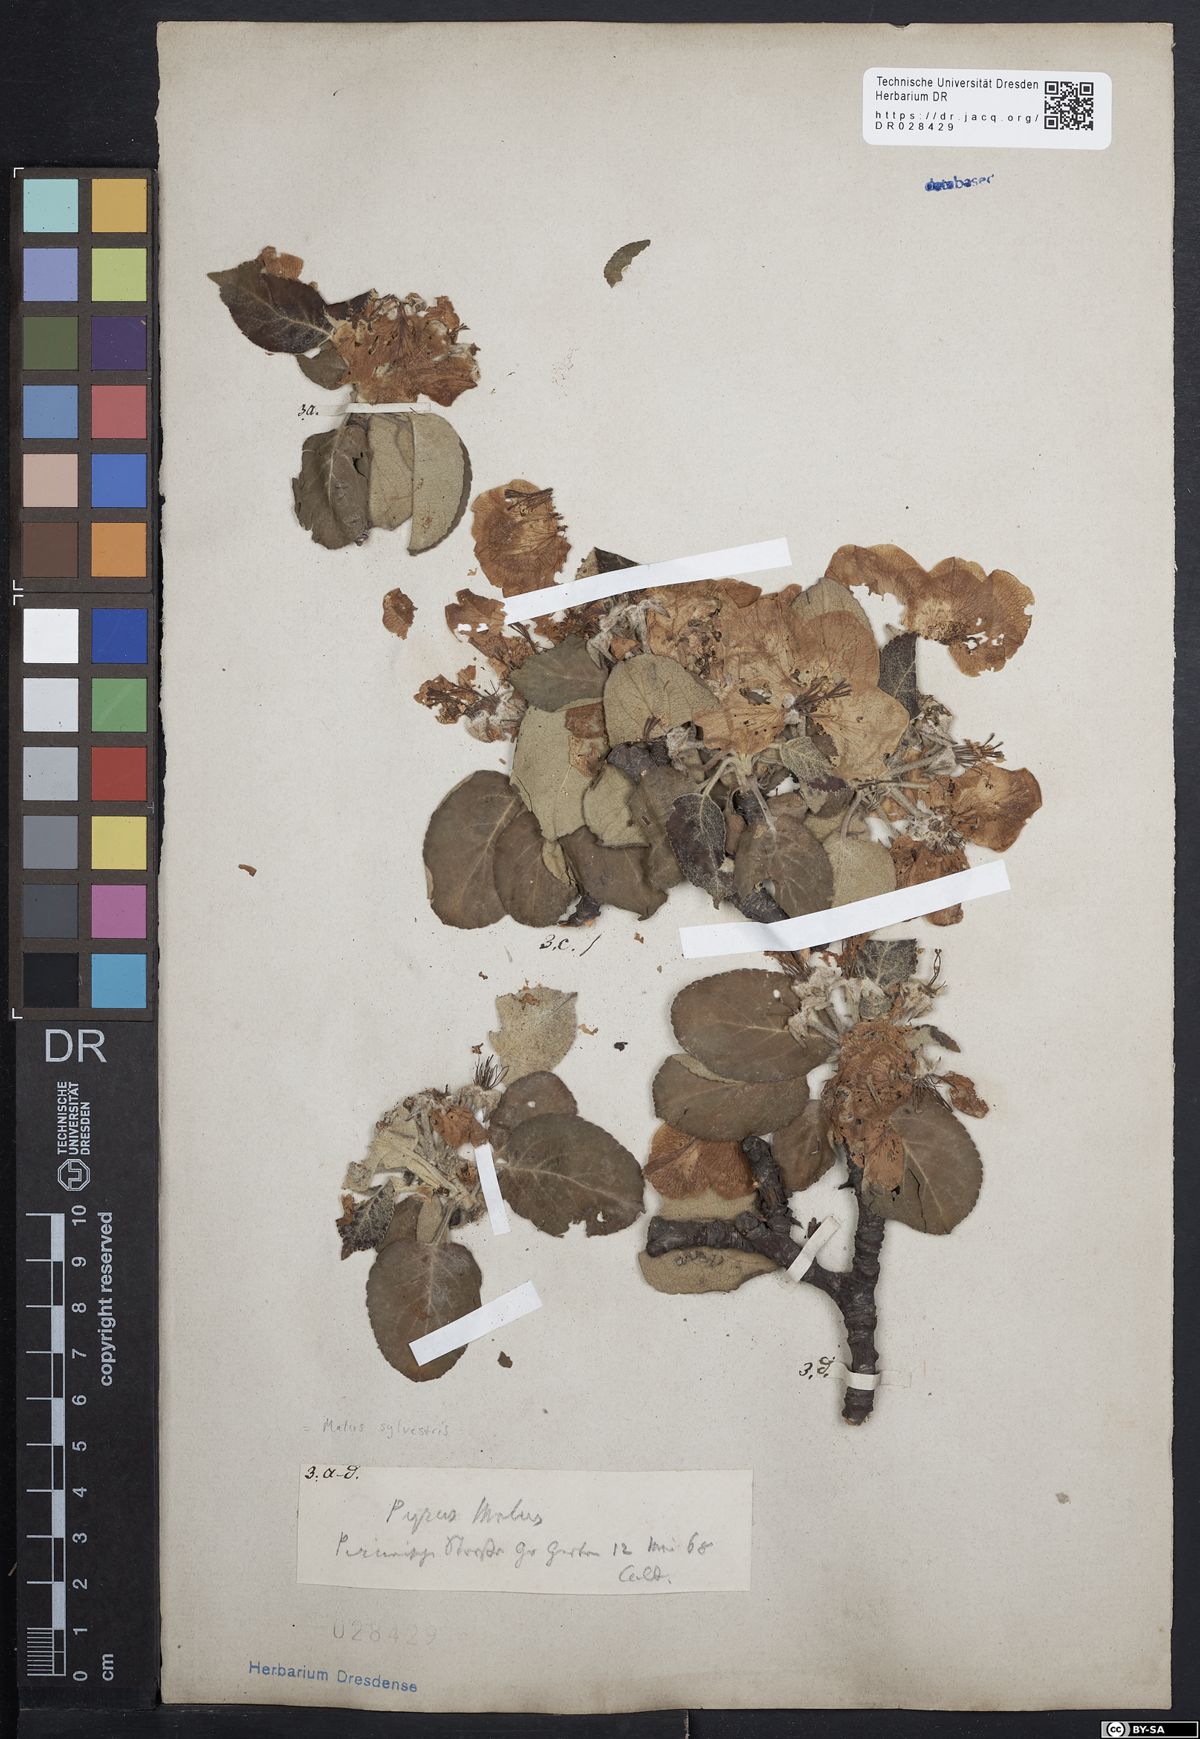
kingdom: Plantae
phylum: Tracheophyta
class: Magnoliopsida
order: Rosales
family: Rosaceae
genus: Malus
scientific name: Malus sylvestris
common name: Crab apple
